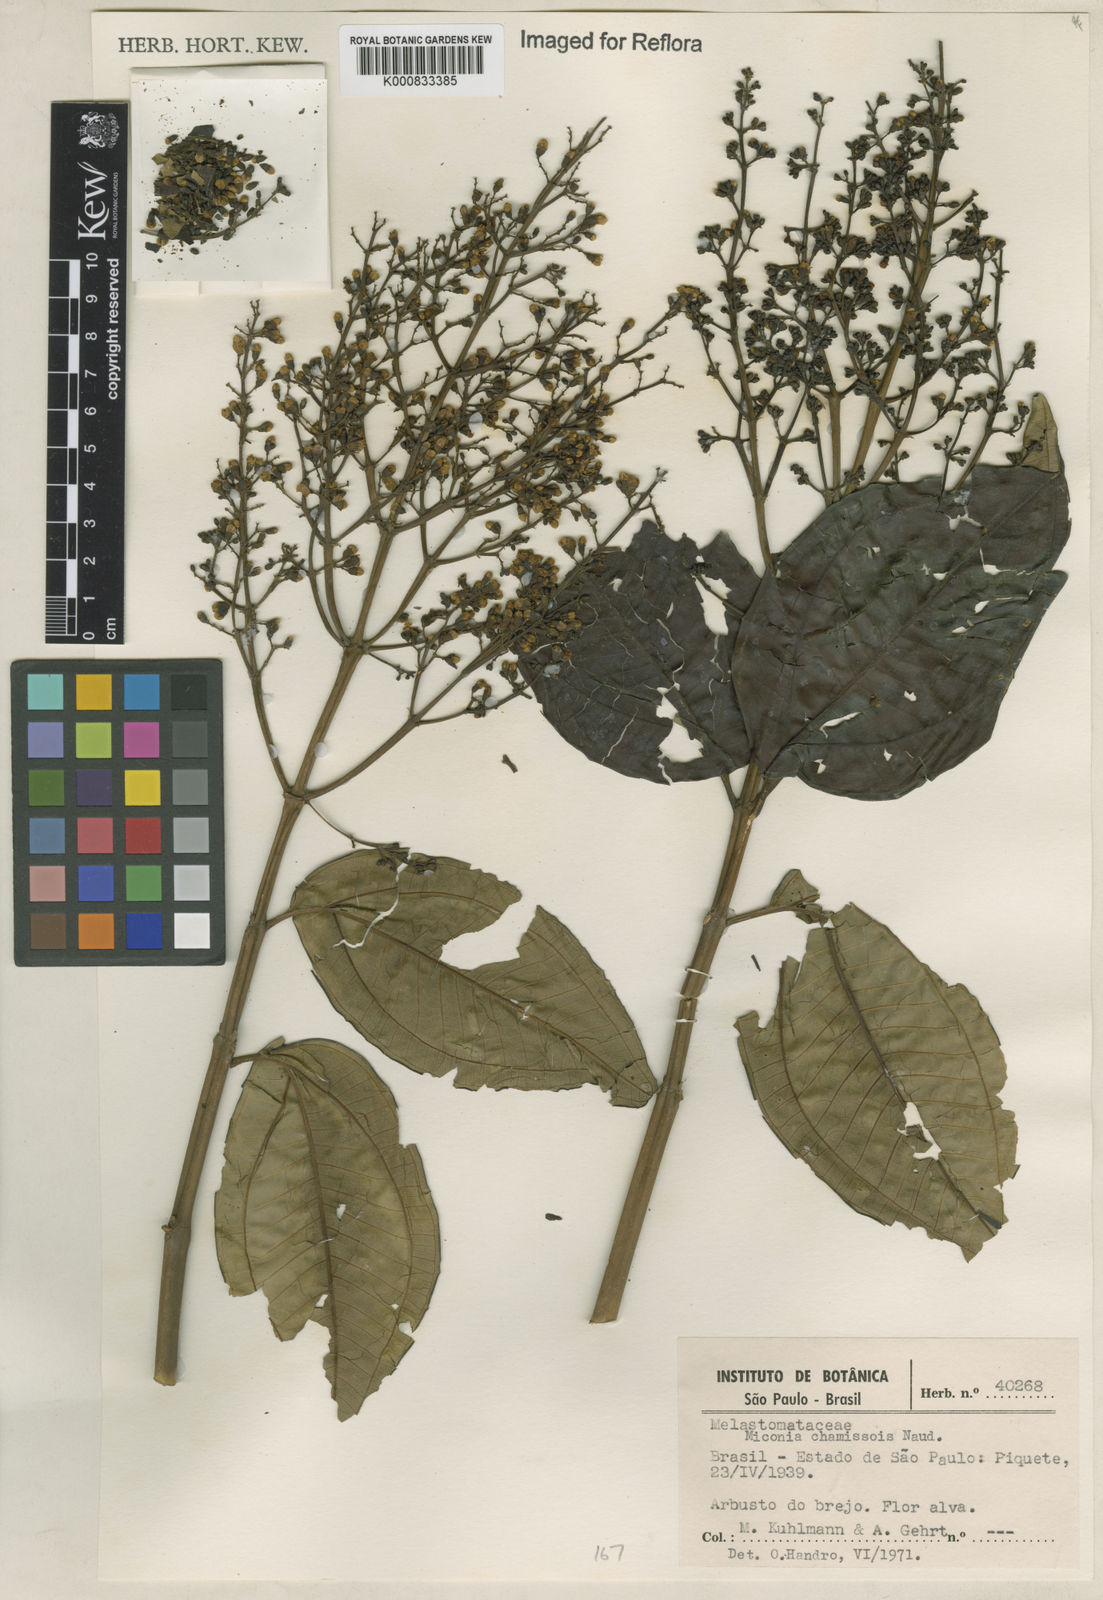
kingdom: Plantae
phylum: Tracheophyta
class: Magnoliopsida
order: Myrtales
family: Melastomataceae
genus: Miconia
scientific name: Miconia chamissois
